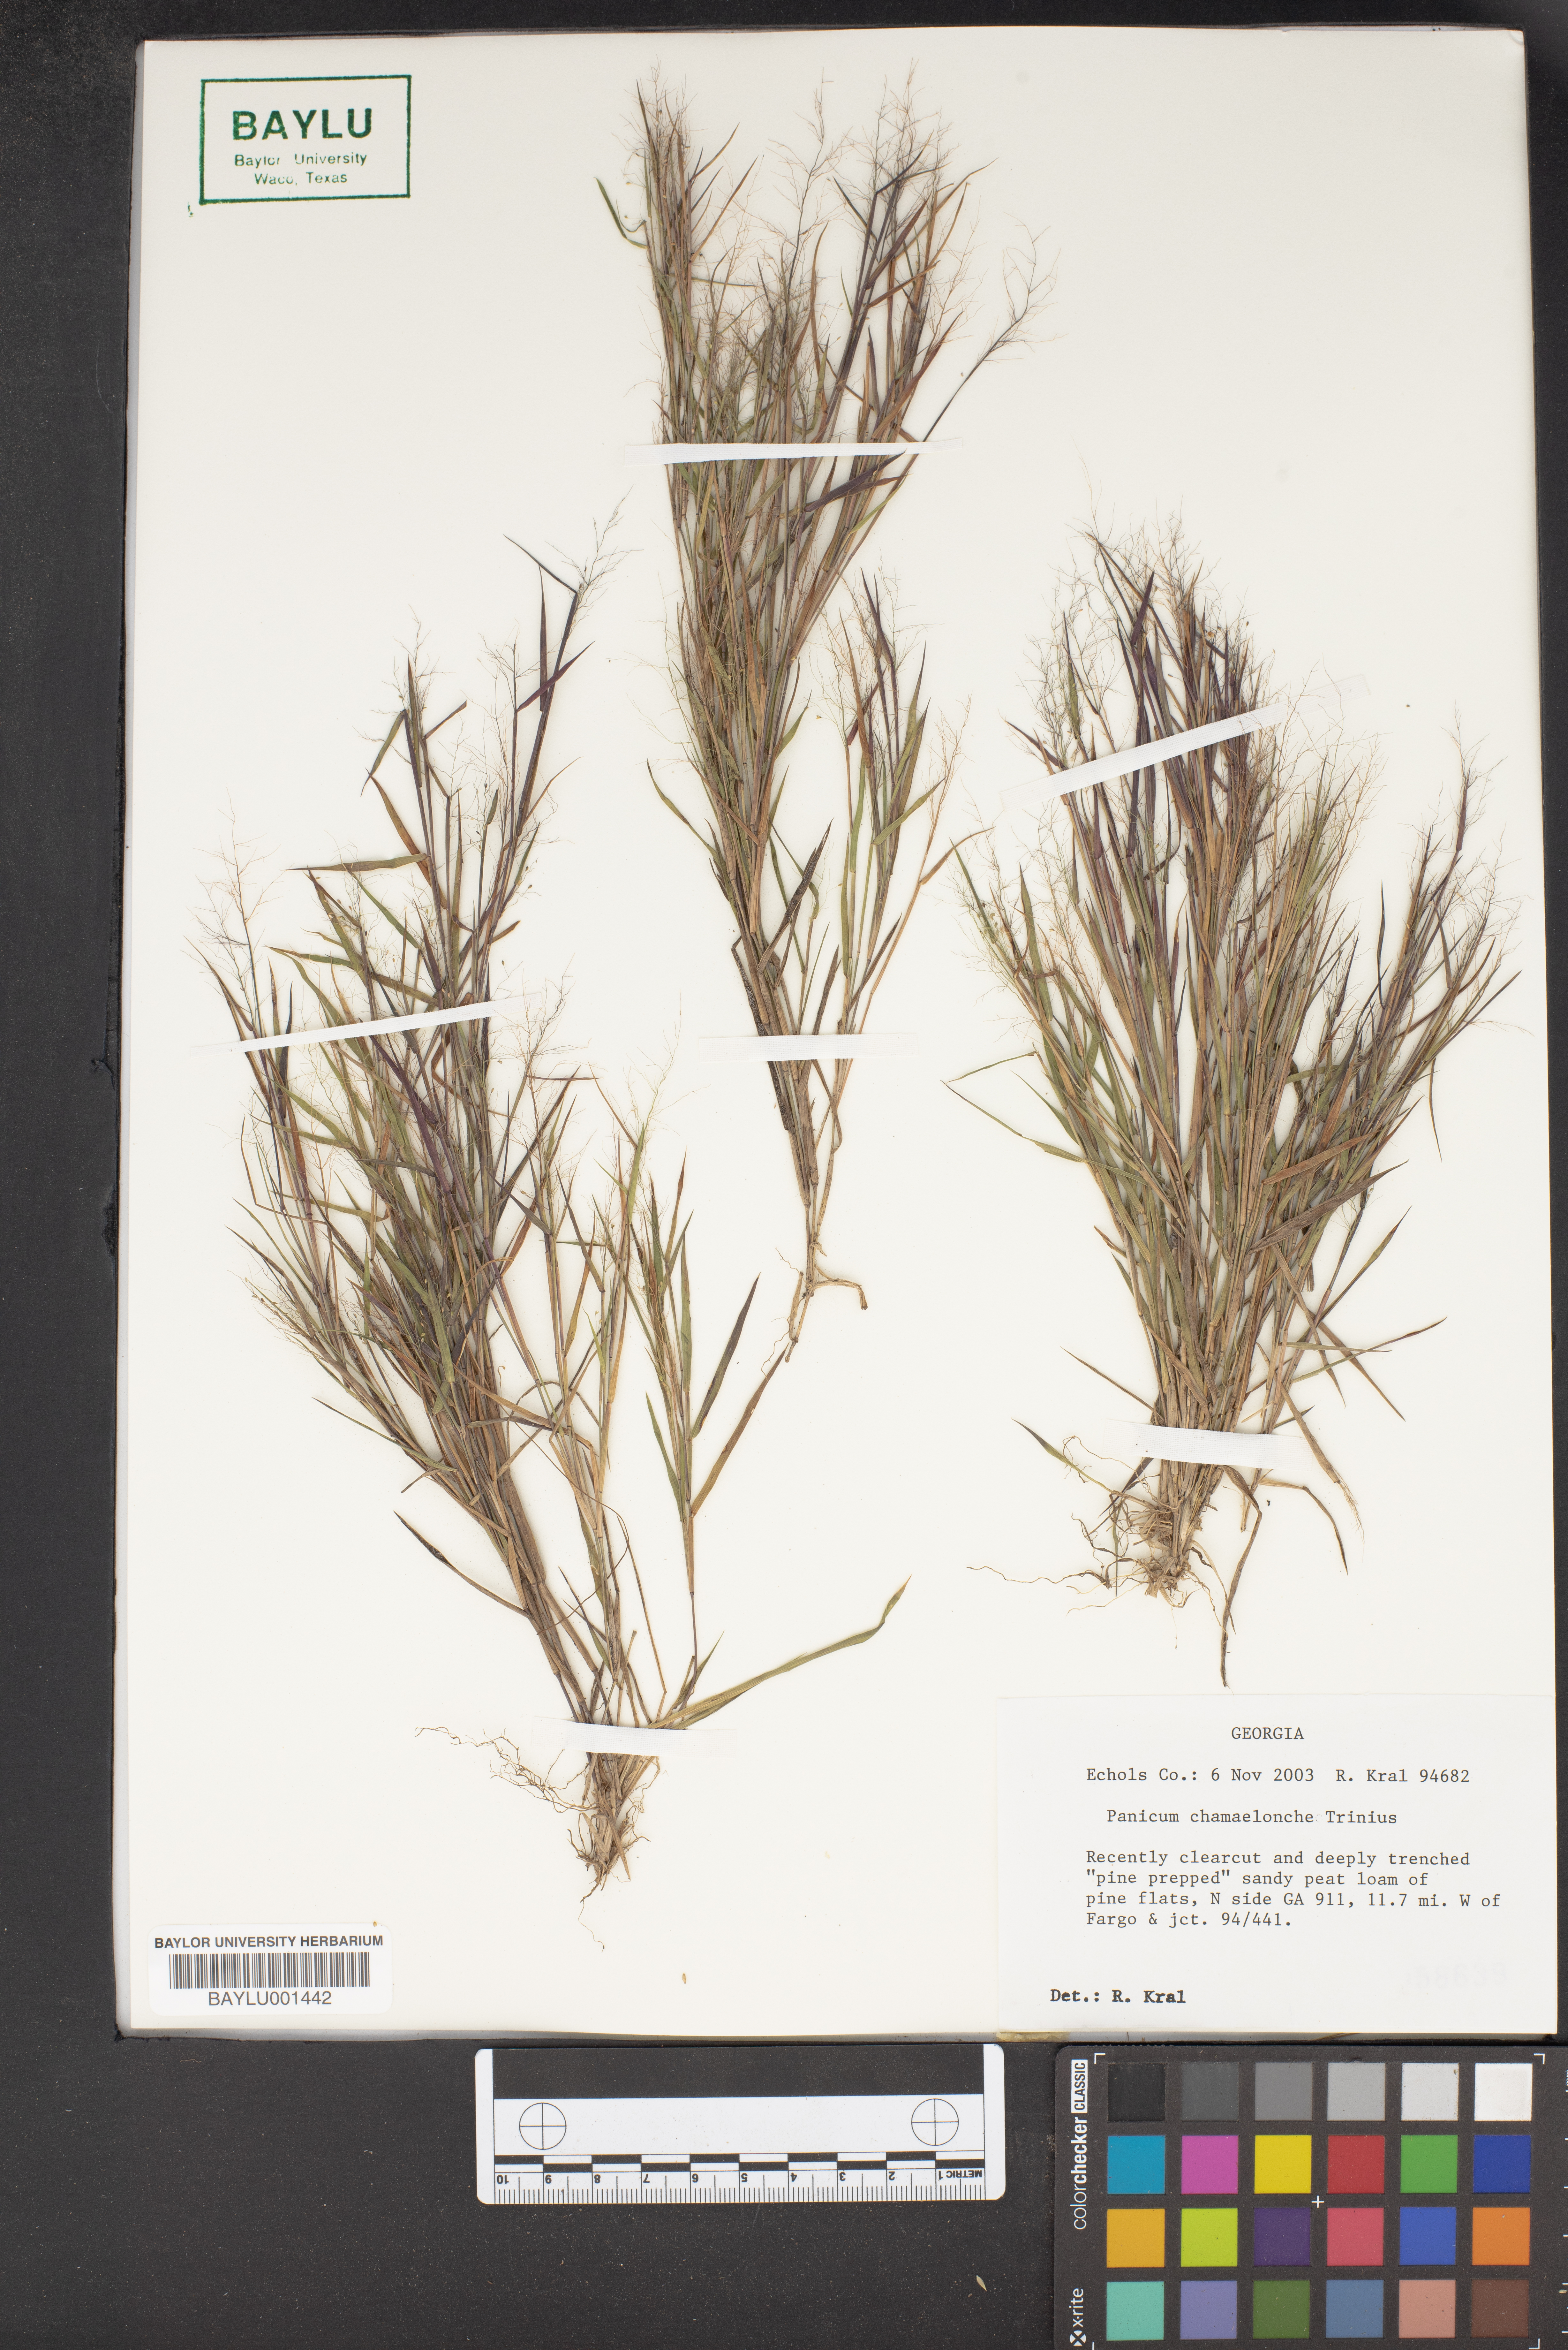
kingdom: Plantae
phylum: Tracheophyta
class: Liliopsida
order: Poales
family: Poaceae
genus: Dichanthelium
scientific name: Dichanthelium chamaelonche
